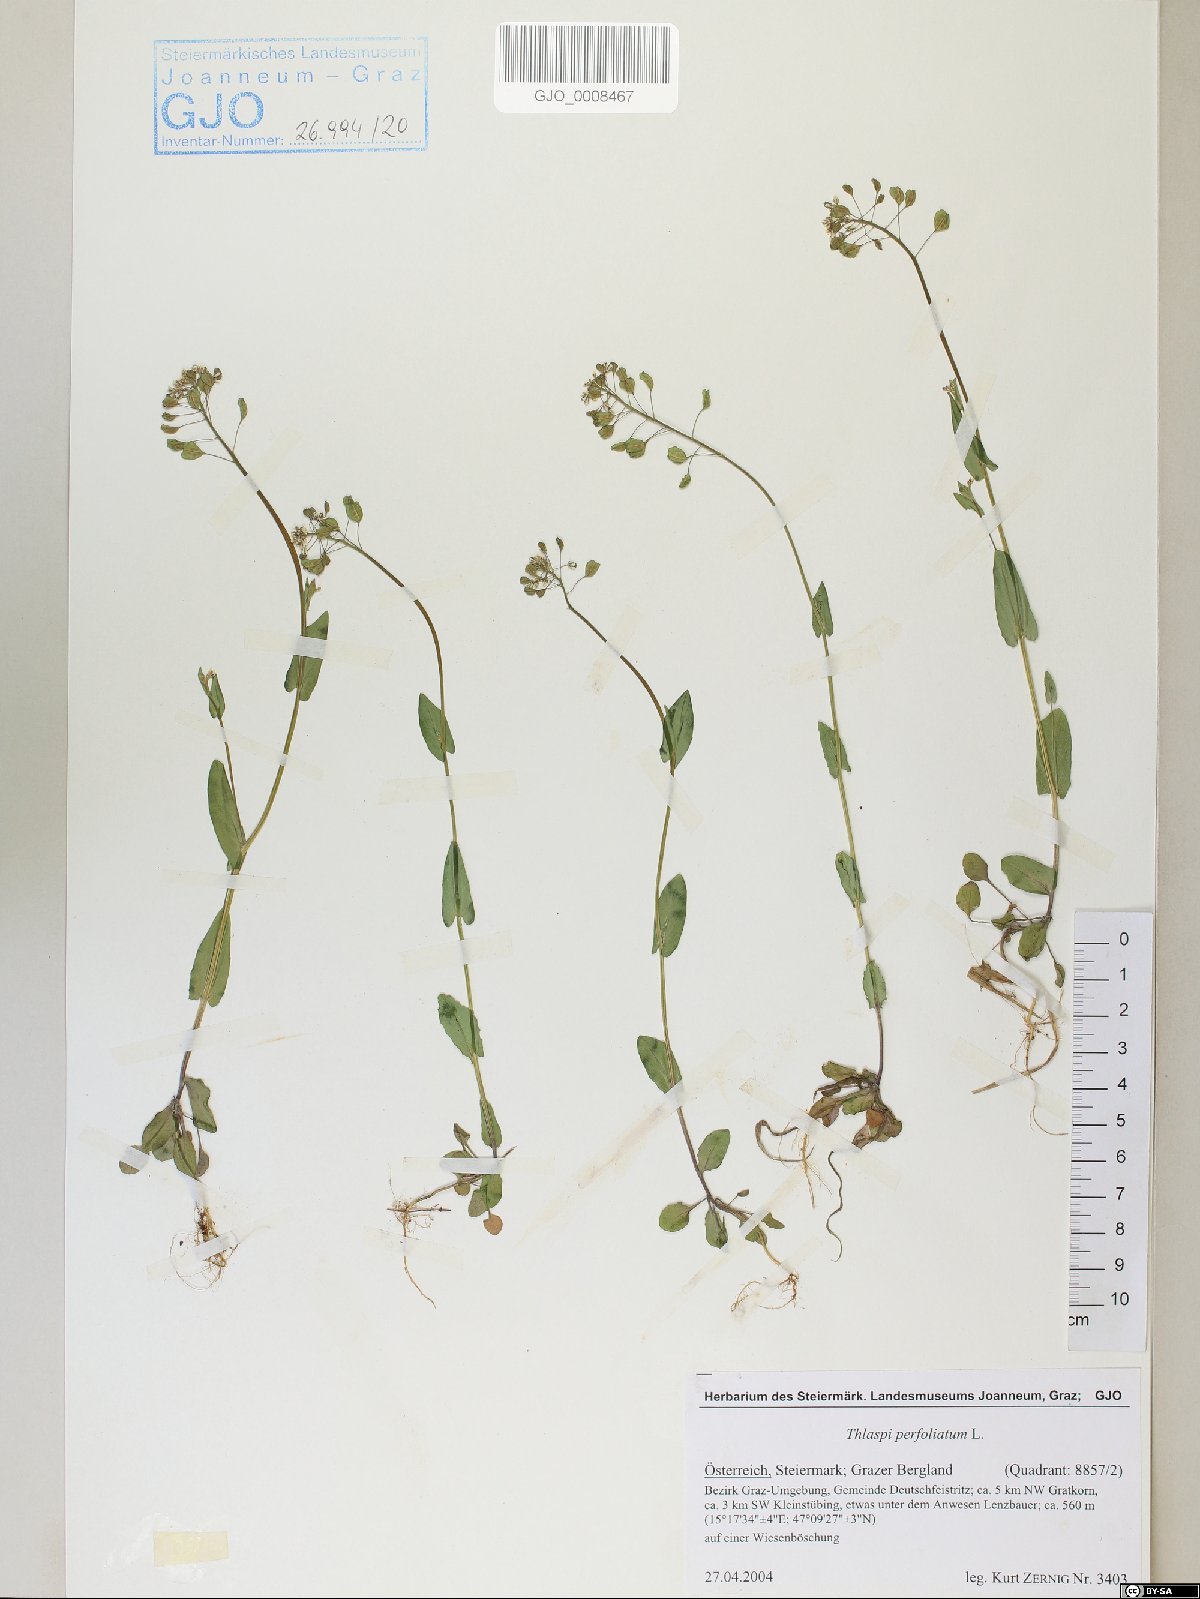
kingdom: Plantae
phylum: Tracheophyta
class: Magnoliopsida
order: Brassicales
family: Brassicaceae
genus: Noccaea
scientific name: Noccaea perfoliata
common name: Perfoliate pennycress
